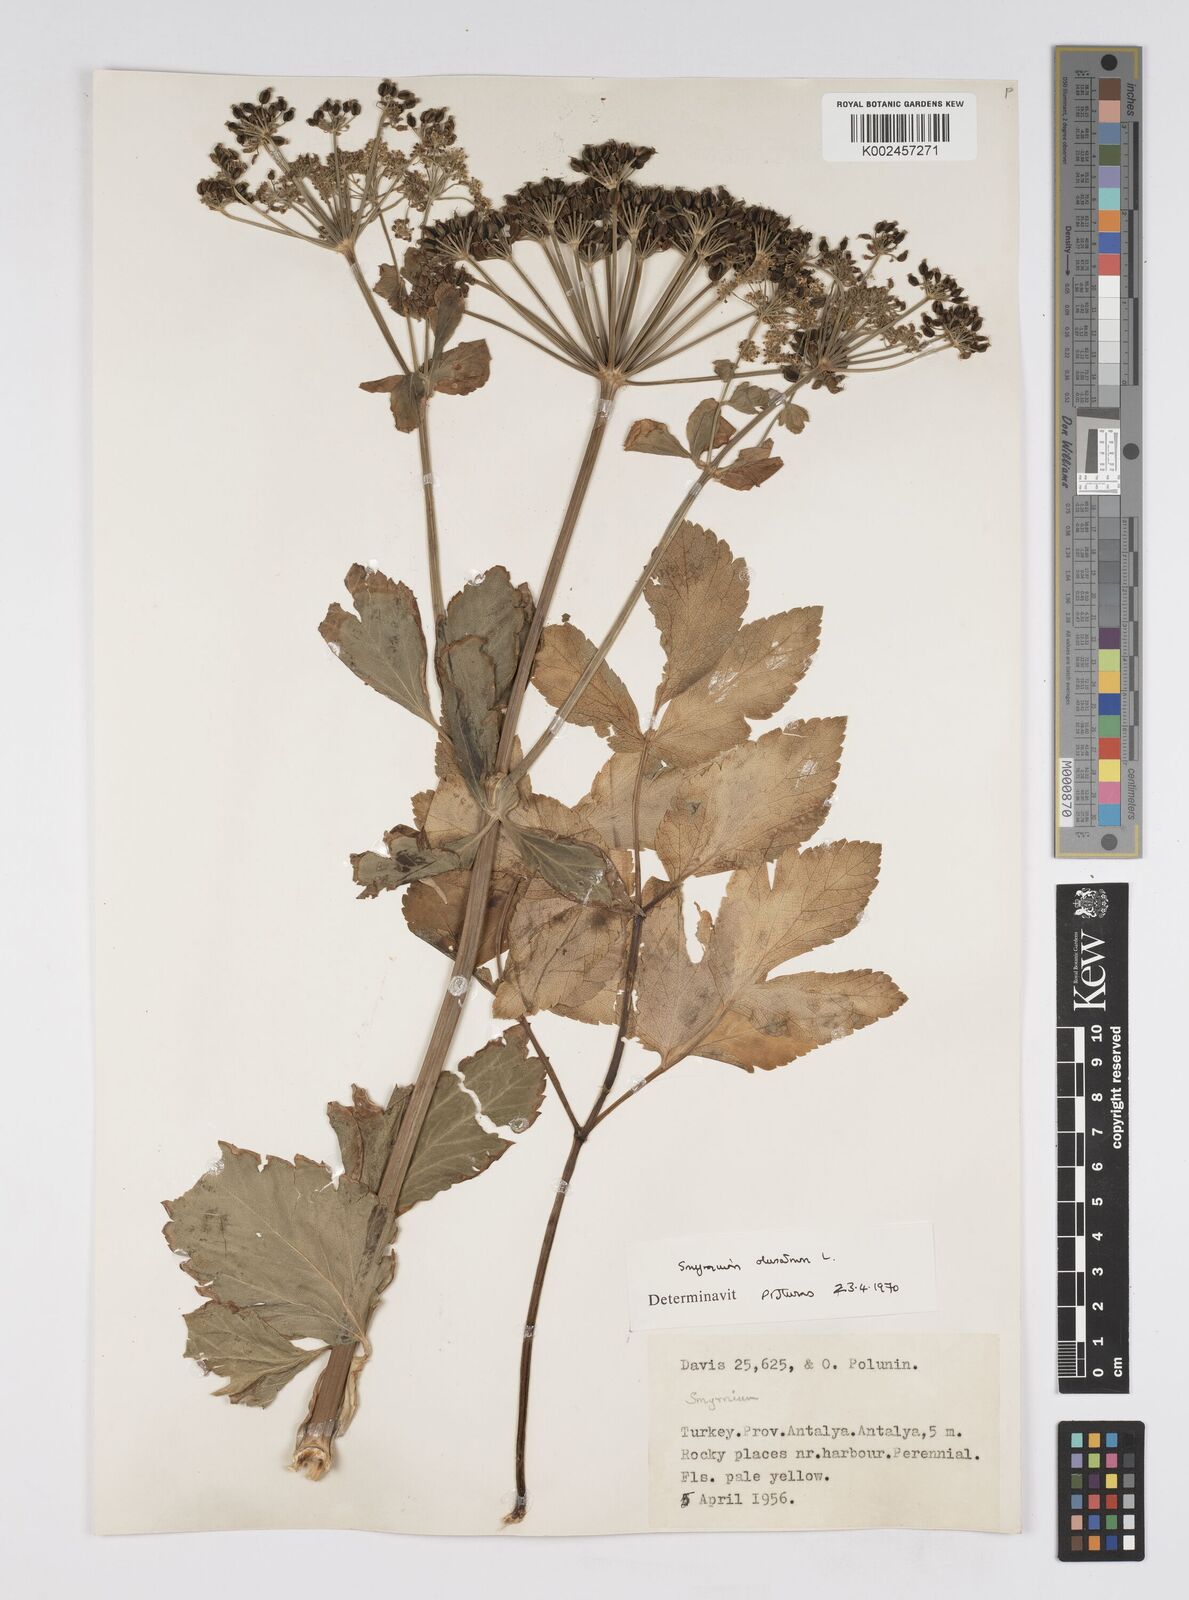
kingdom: Plantae
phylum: Tracheophyta
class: Magnoliopsida
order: Apiales
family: Apiaceae
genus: Smyrnium
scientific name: Smyrnium olusatrum
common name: Alexanders
